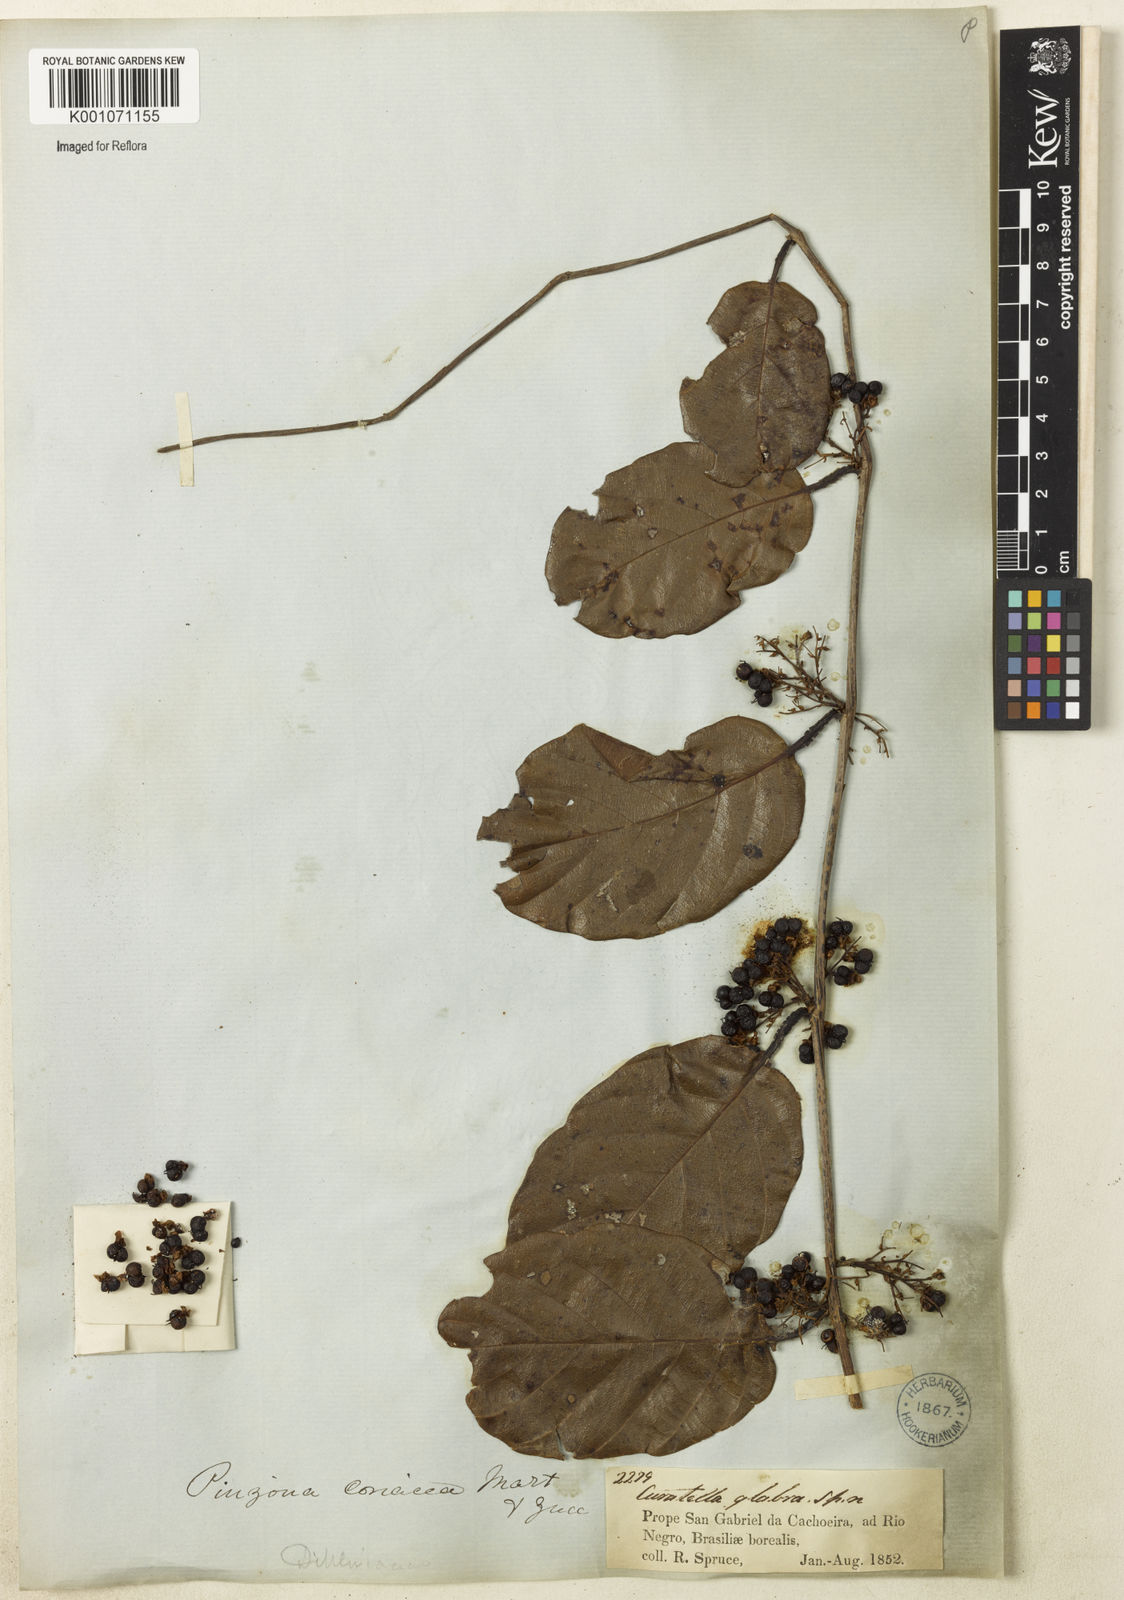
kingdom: Plantae
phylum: Tracheophyta
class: Magnoliopsida
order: Dilleniales
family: Dilleniaceae
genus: Pinzona
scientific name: Pinzona coriacea
